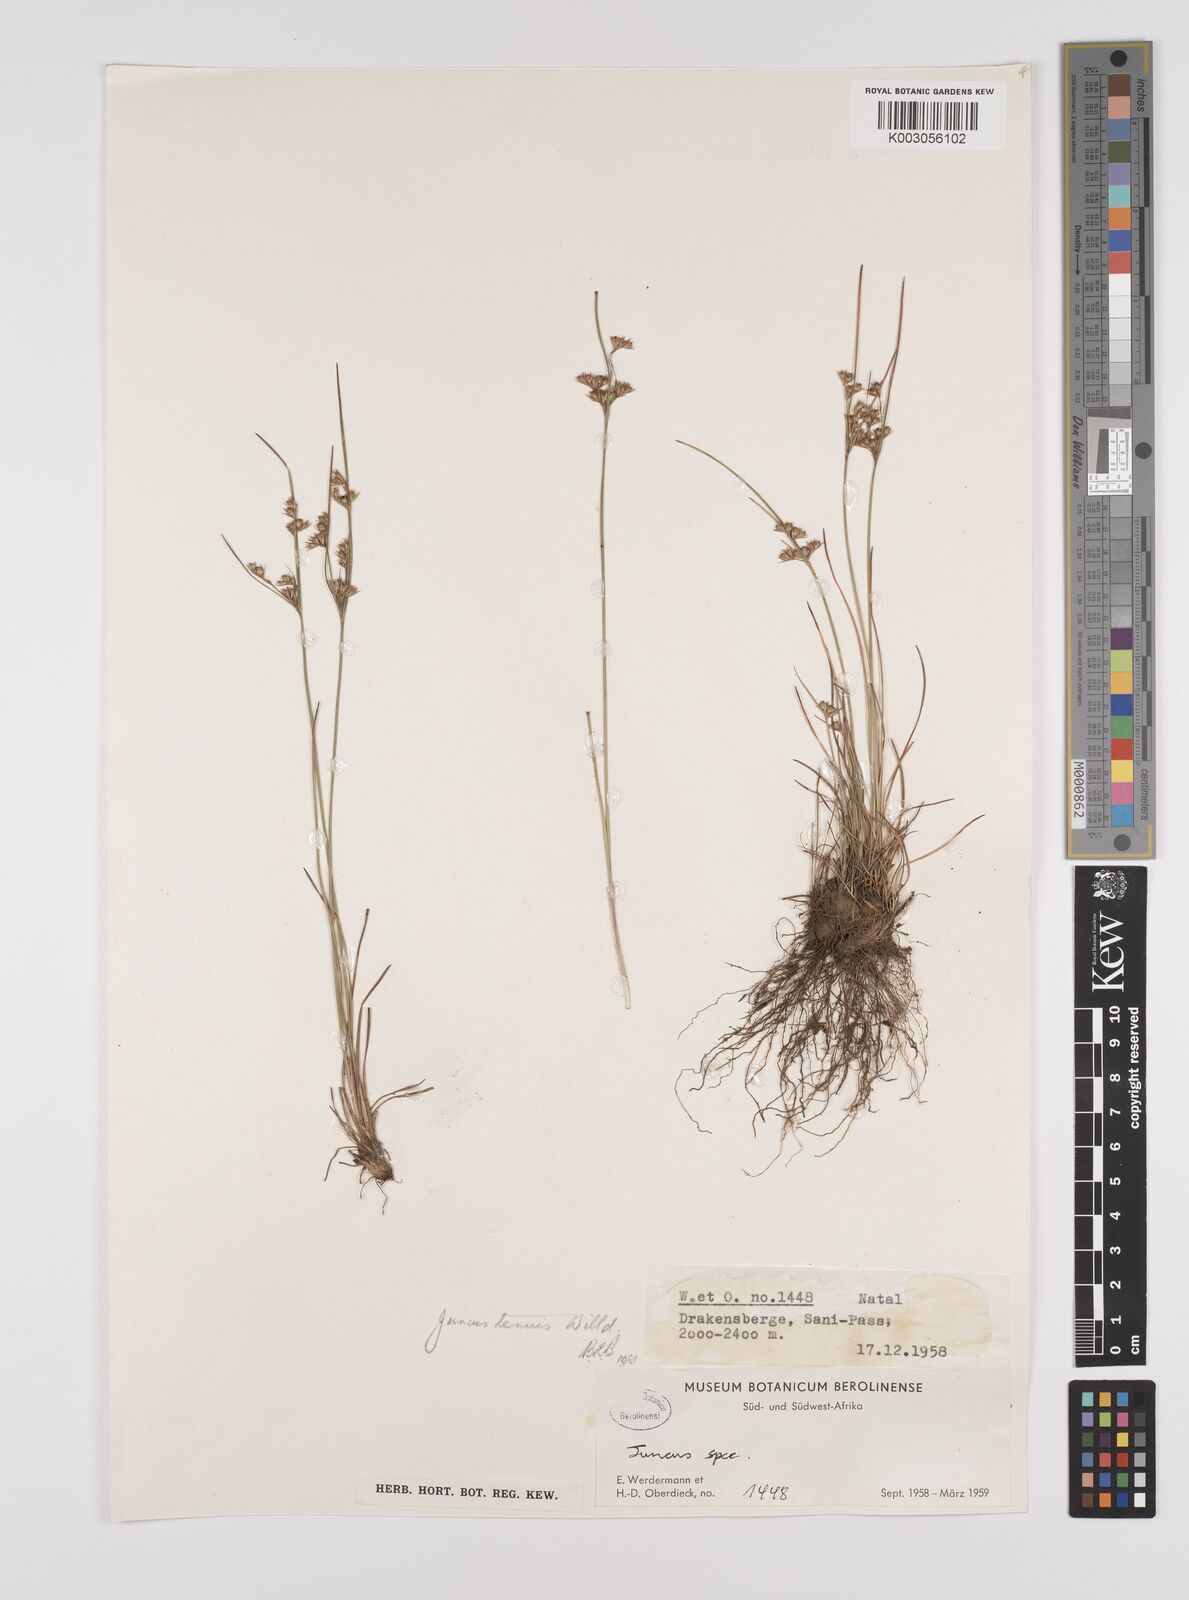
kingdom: Plantae
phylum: Tracheophyta
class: Liliopsida
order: Poales
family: Juncaceae
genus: Juncus
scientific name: Juncus tenuis
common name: Slender rush
